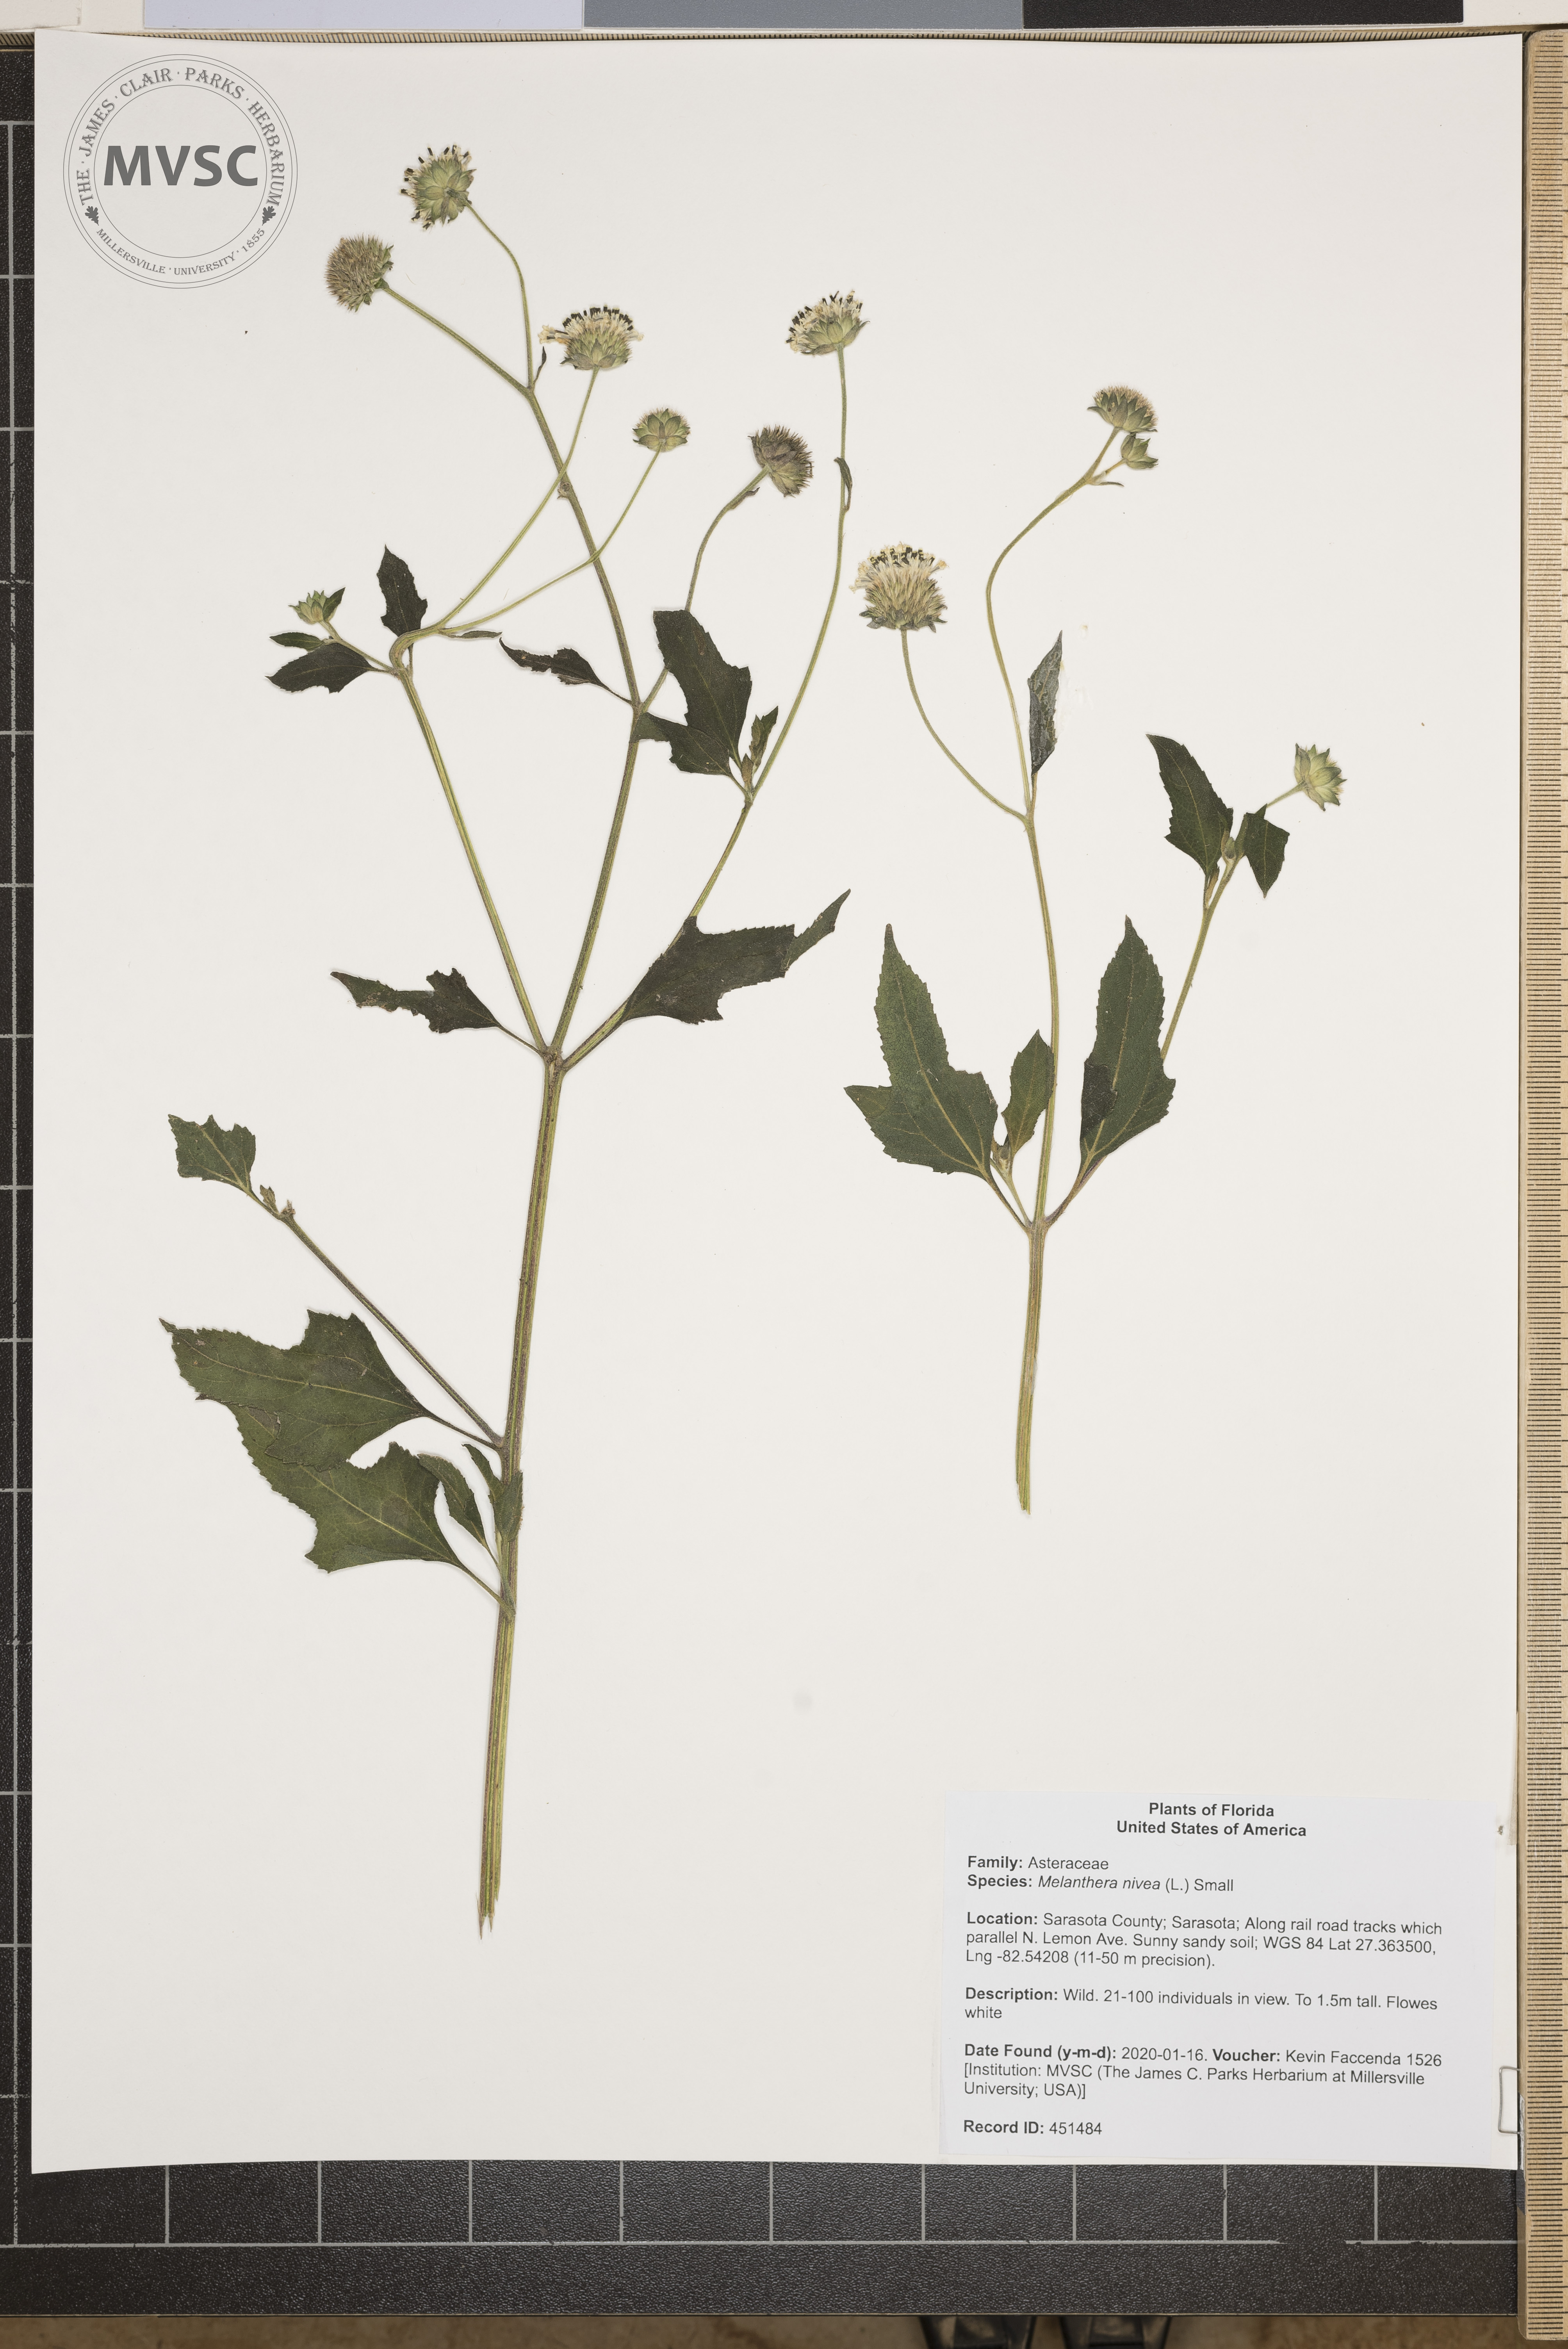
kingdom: Plantae
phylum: Tracheophyta
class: Magnoliopsida
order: Asterales
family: Asteraceae
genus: Melanthera
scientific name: Melanthera nivea
